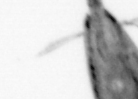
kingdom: Animalia
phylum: Arthropoda
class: Maxillopoda
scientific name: Maxillopoda
